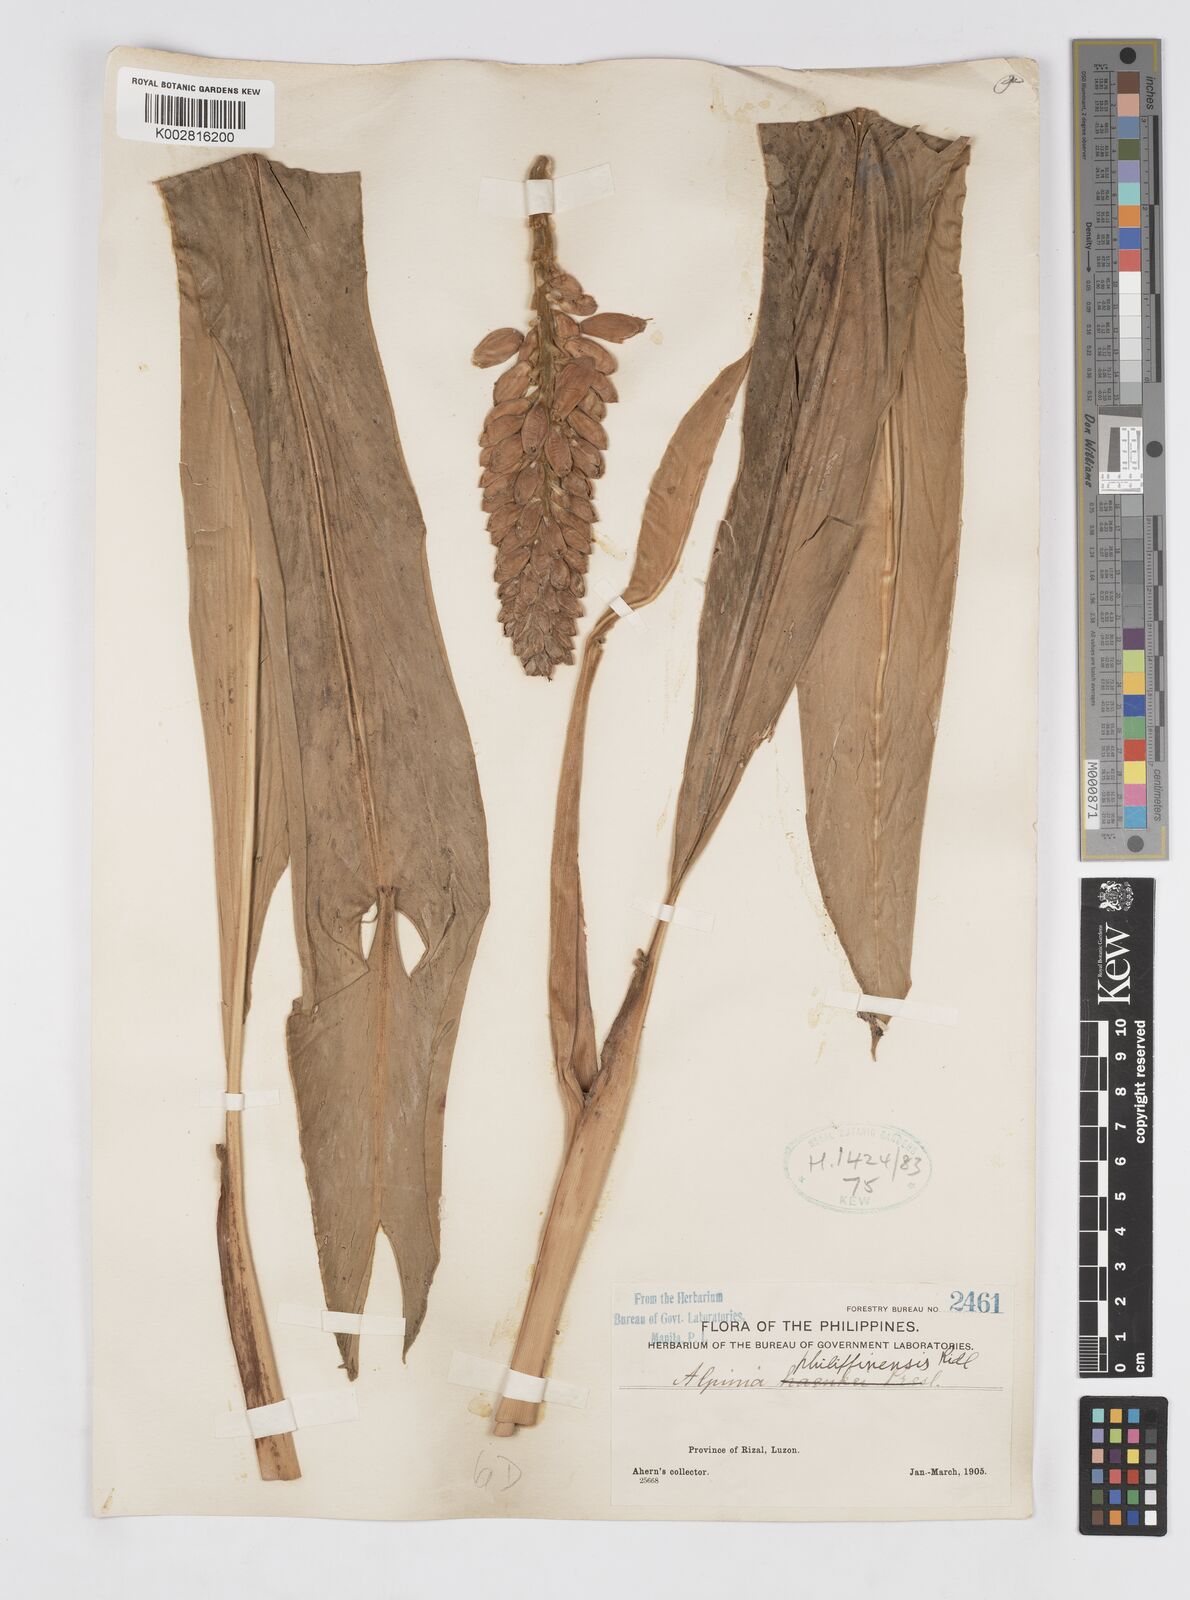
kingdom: Plantae
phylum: Tracheophyta
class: Liliopsida
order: Zingiberales
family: Zingiberaceae
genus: Alpinia
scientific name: Alpinia haenkei
